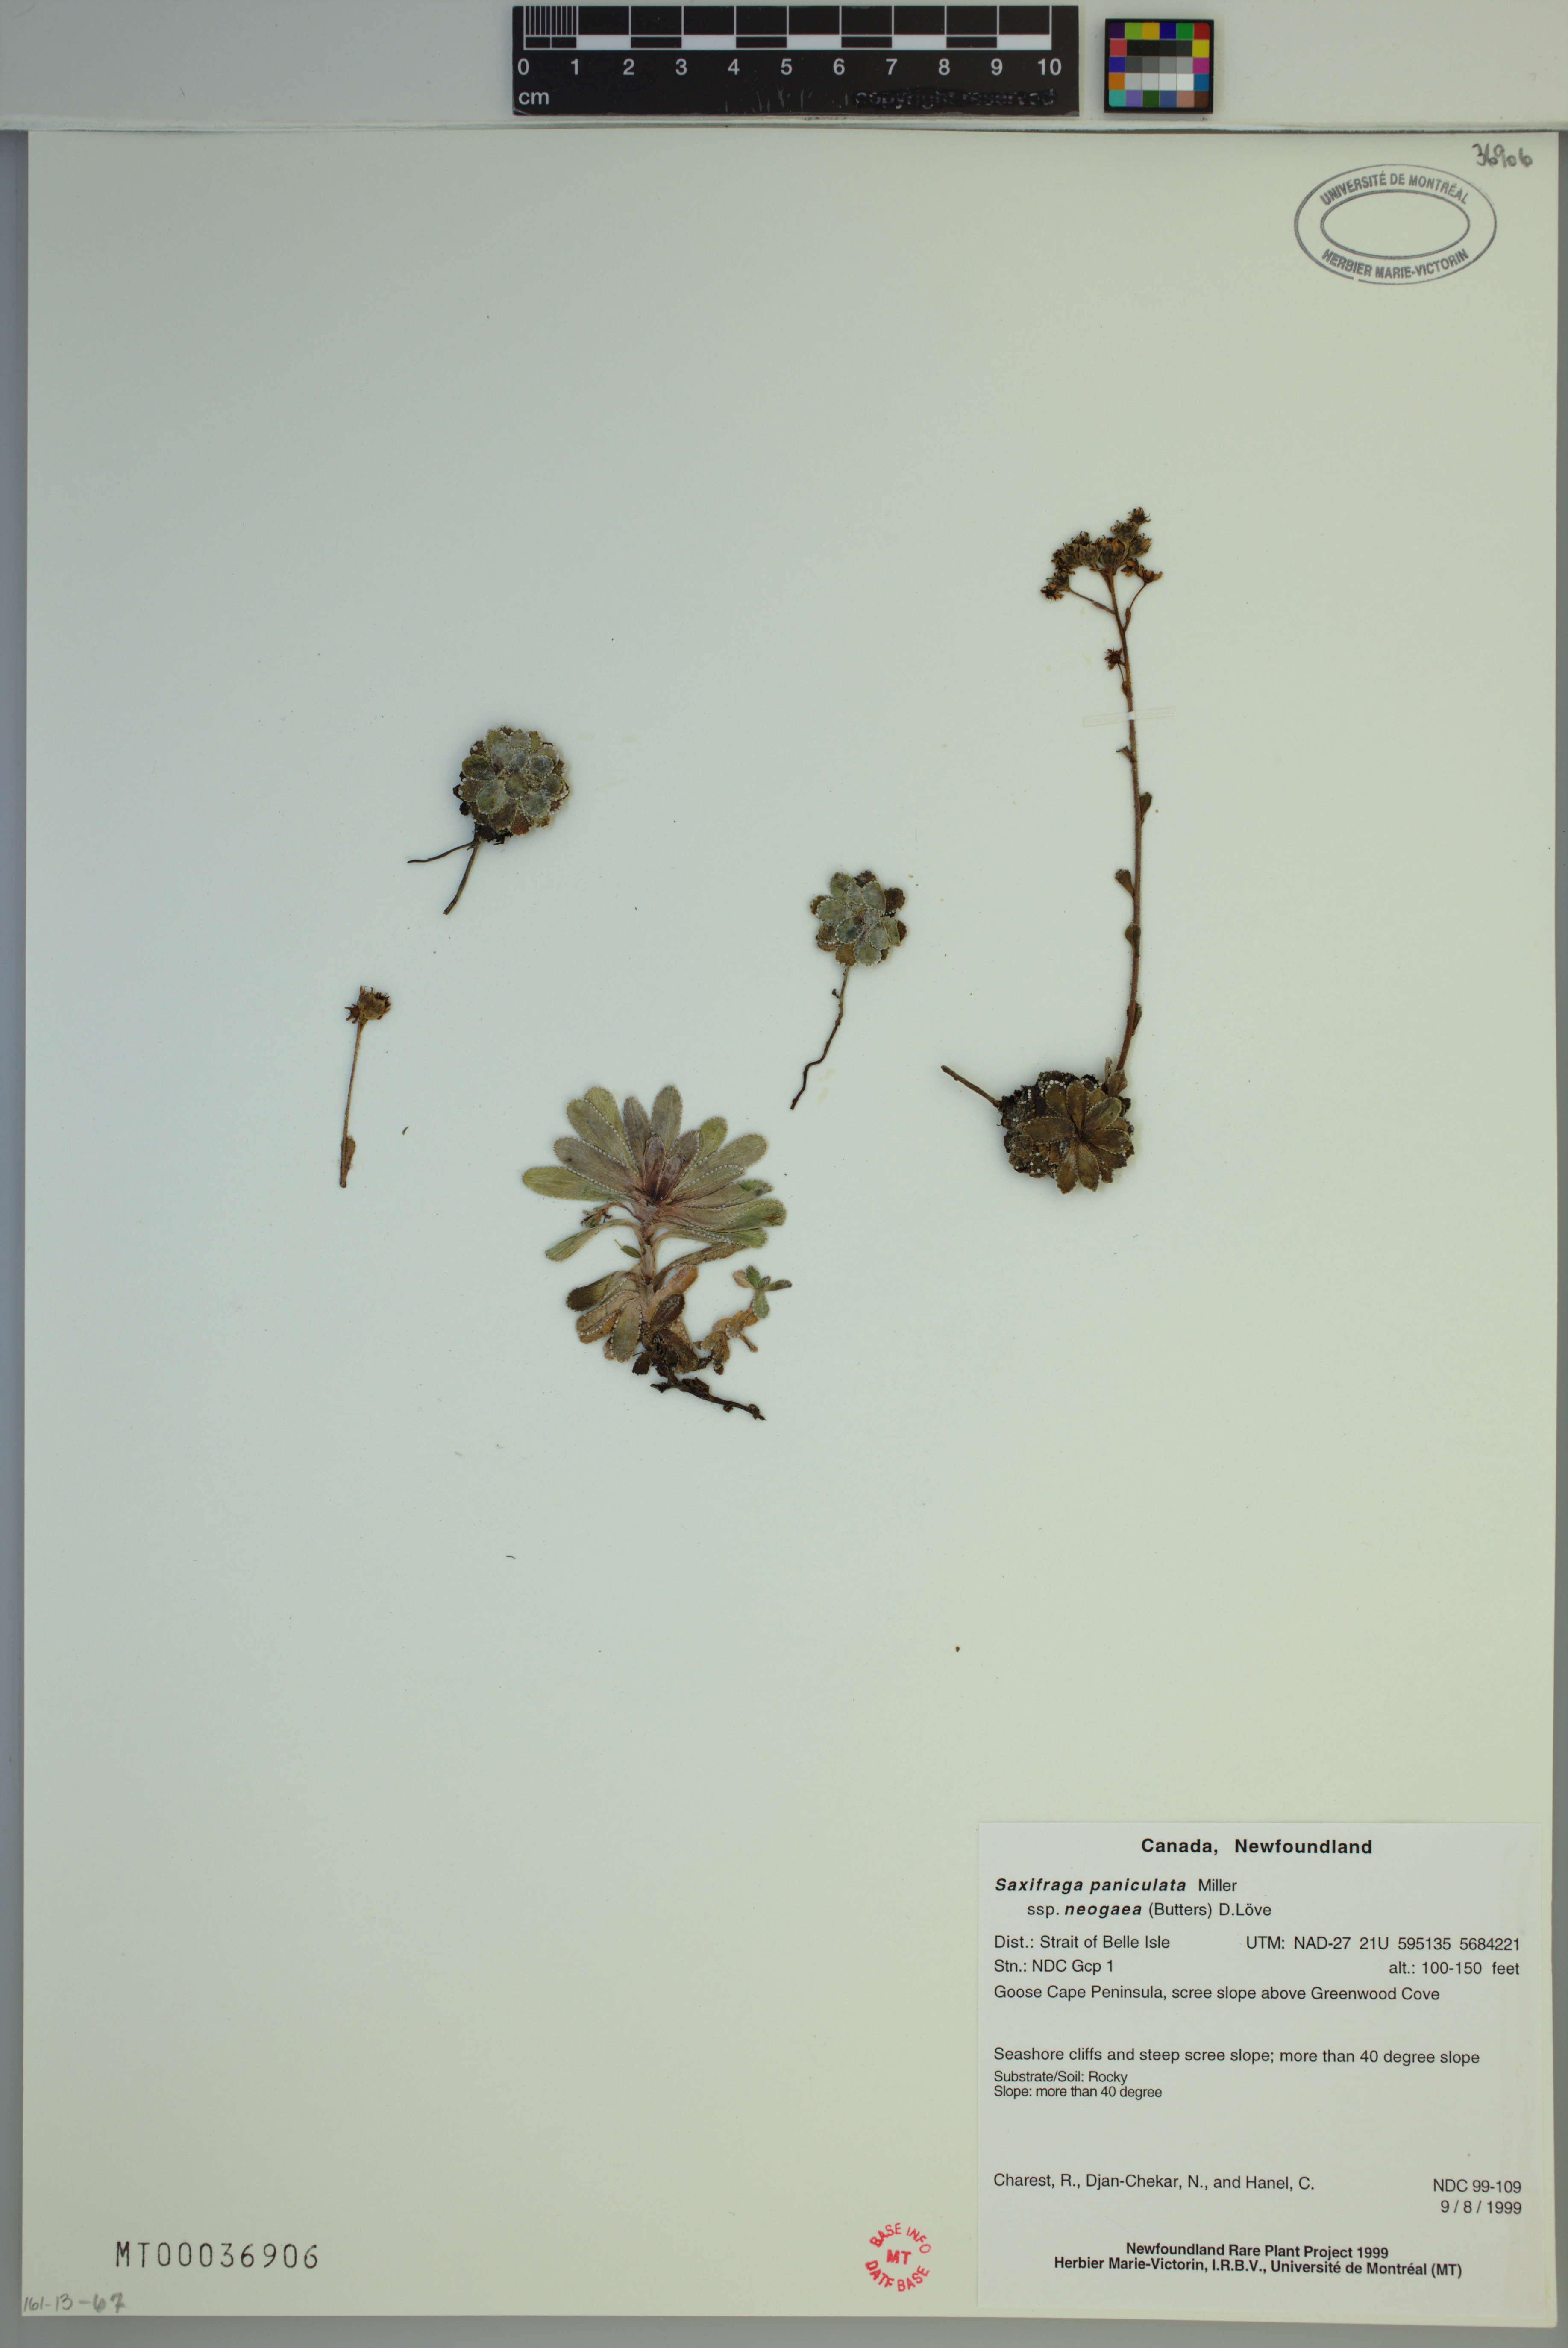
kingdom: Plantae
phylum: Tracheophyta
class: Magnoliopsida
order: Saxifragales
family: Saxifragaceae
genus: Saxifraga
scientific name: Saxifraga paniculata
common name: Livelong saxifrage
